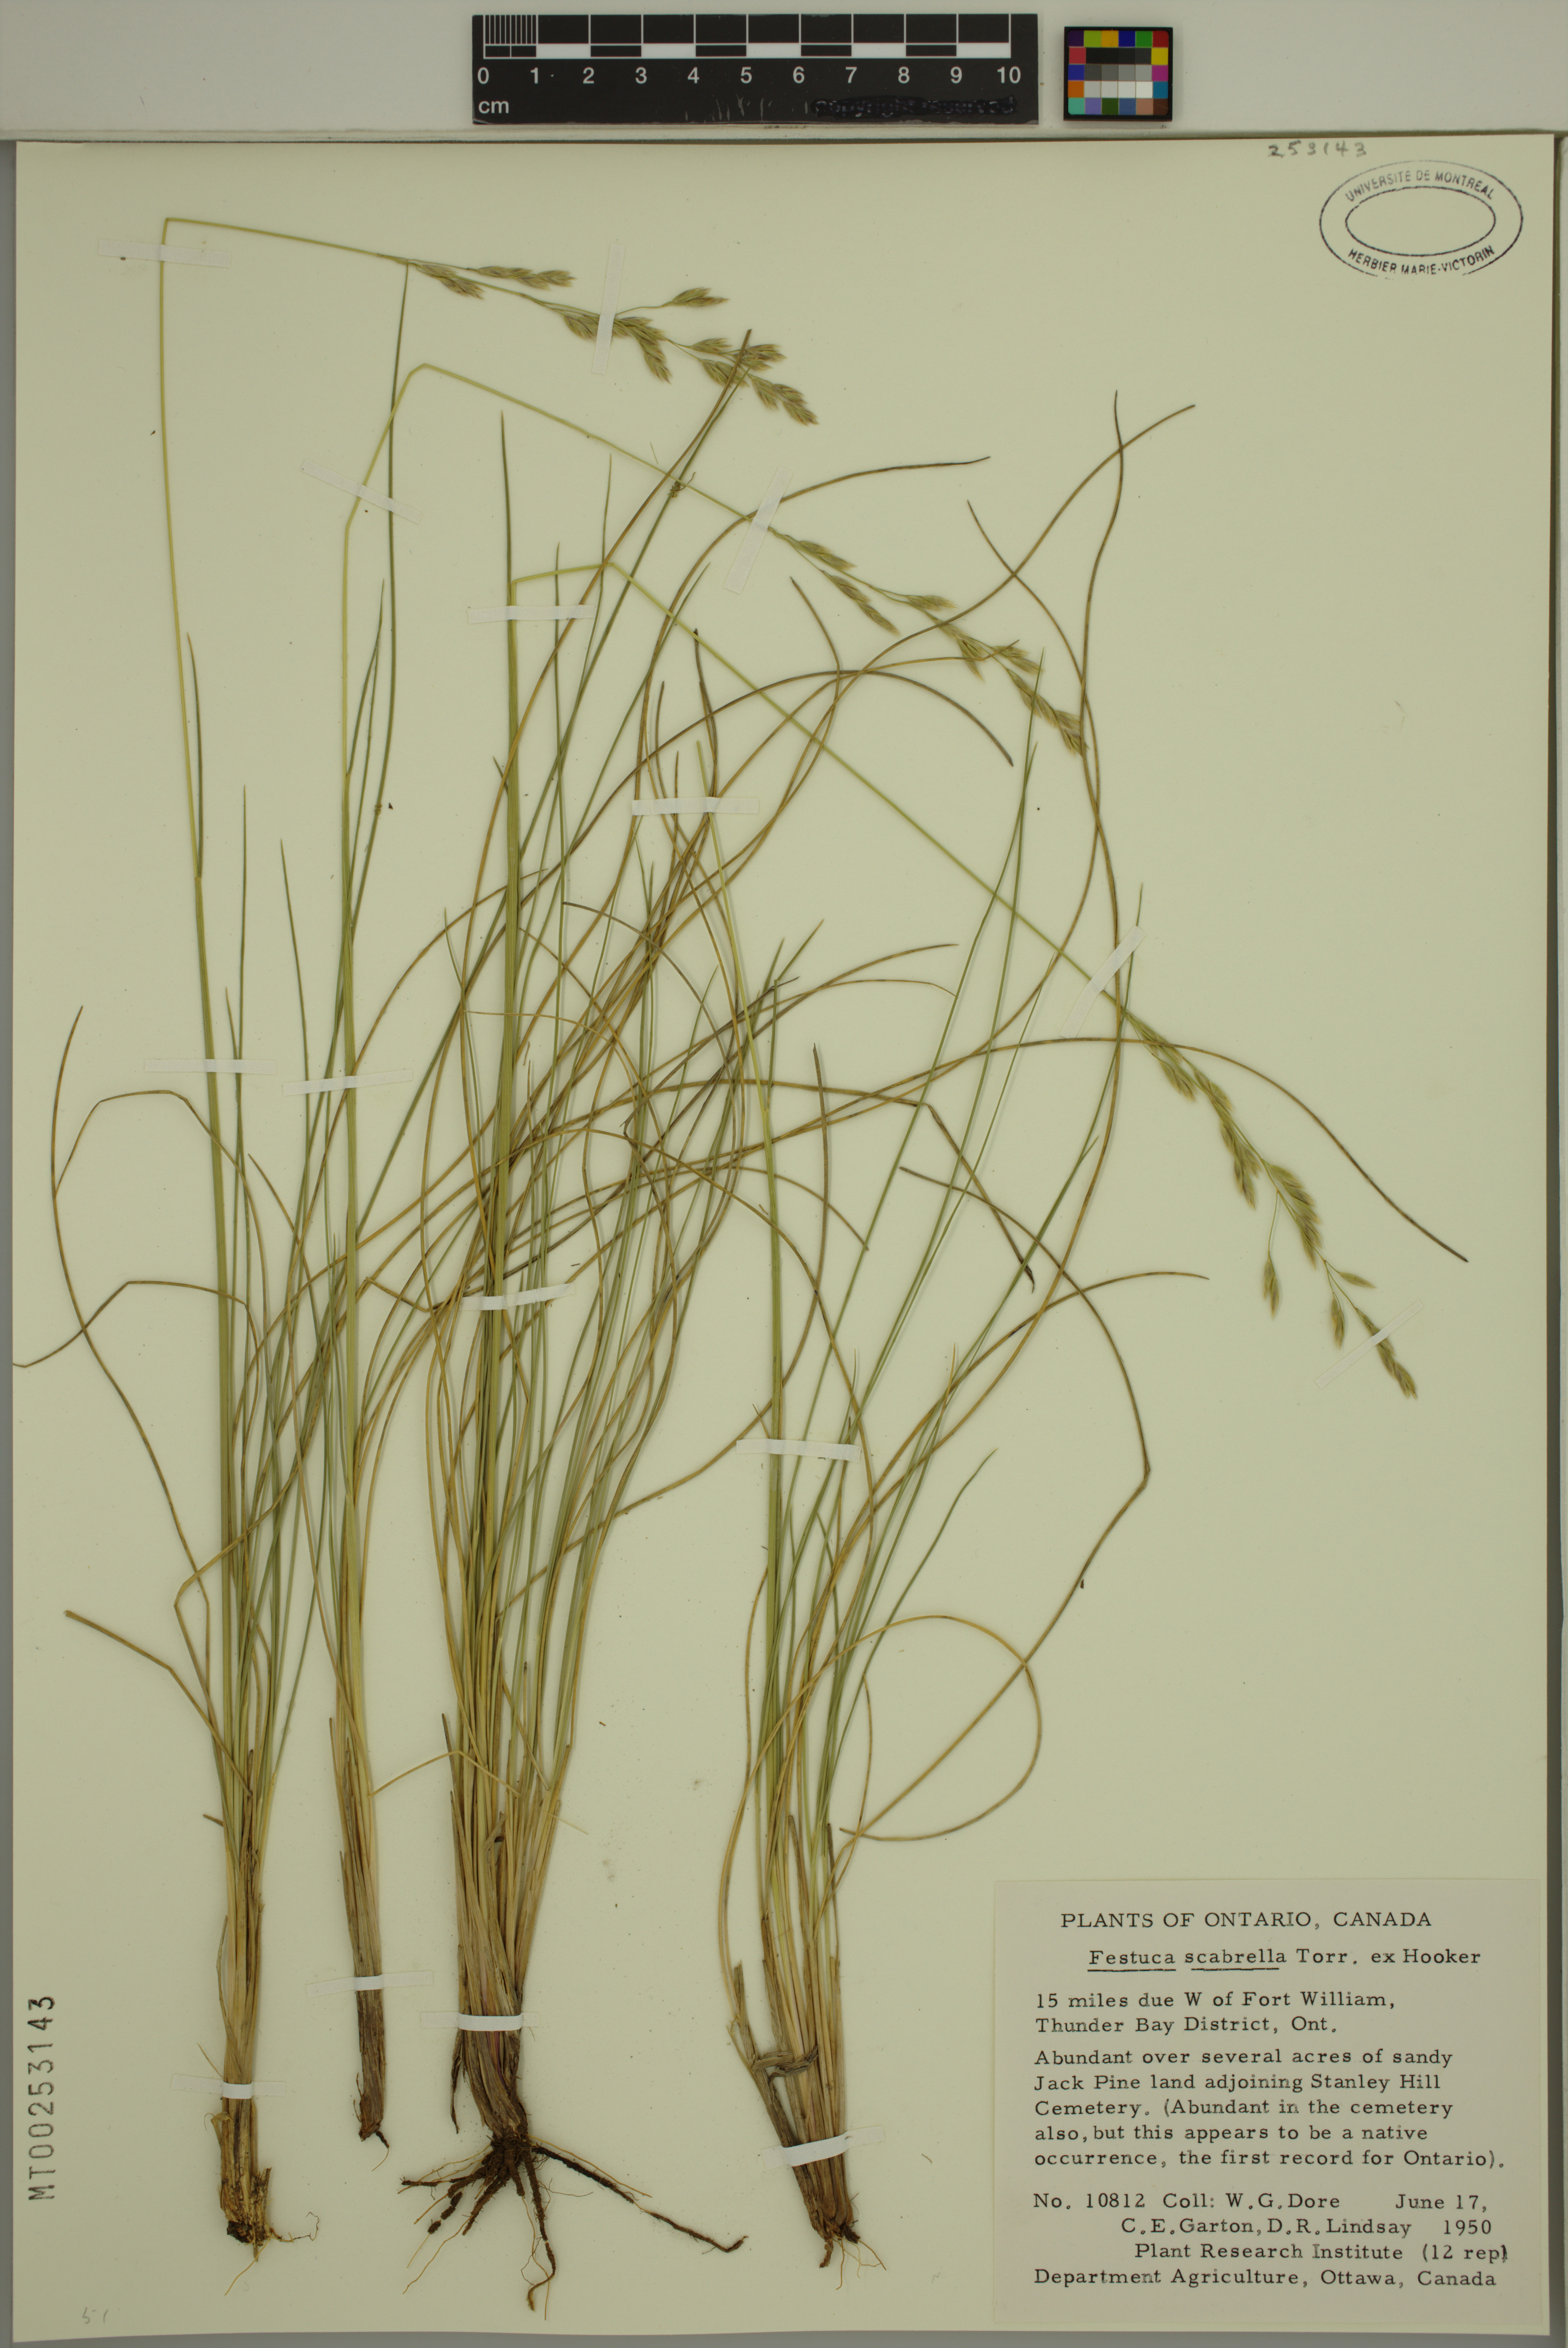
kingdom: Plantae
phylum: Tracheophyta
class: Liliopsida
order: Poales
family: Poaceae
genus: Festuca
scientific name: Festuca
